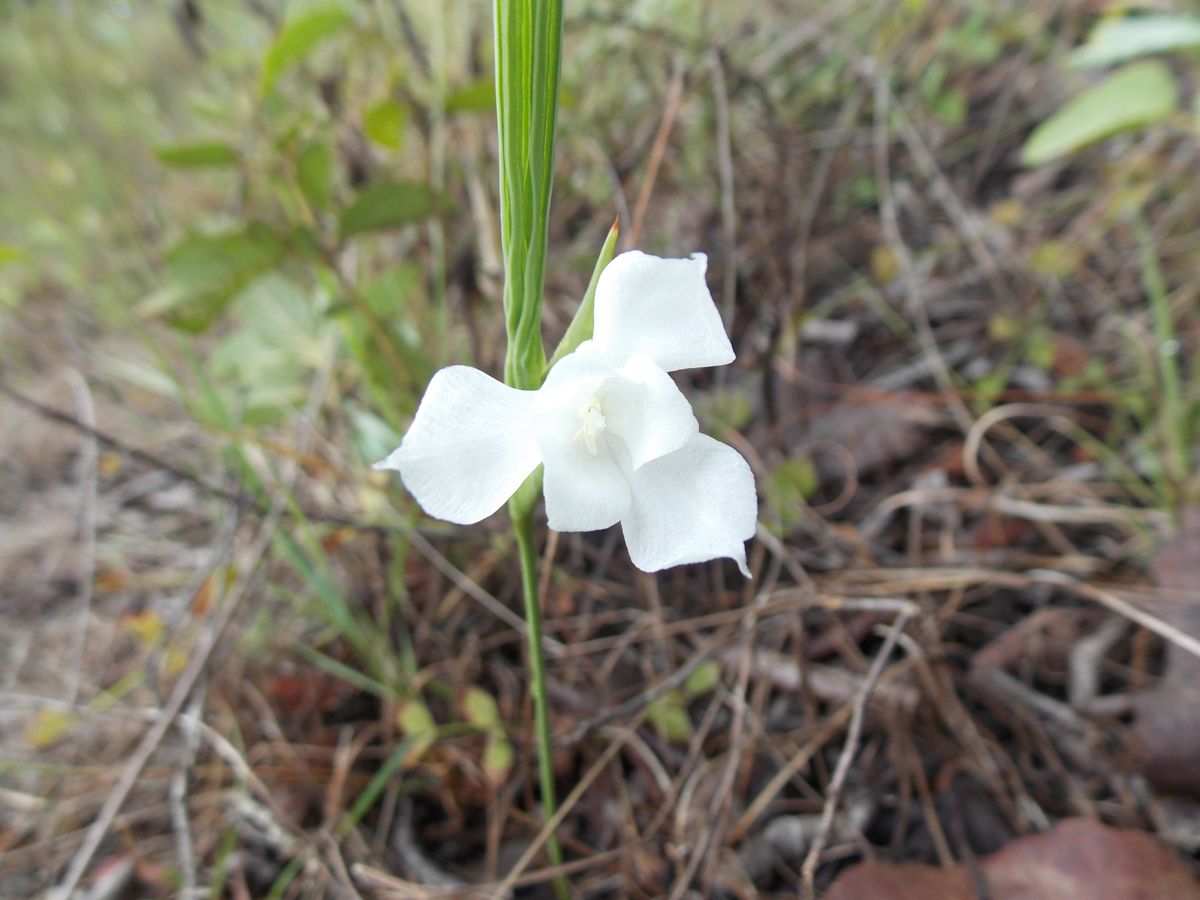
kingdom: Plantae
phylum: Tracheophyta
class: Liliopsida
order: Asparagales
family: Iridaceae
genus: Cipura
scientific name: Cipura campanulata
